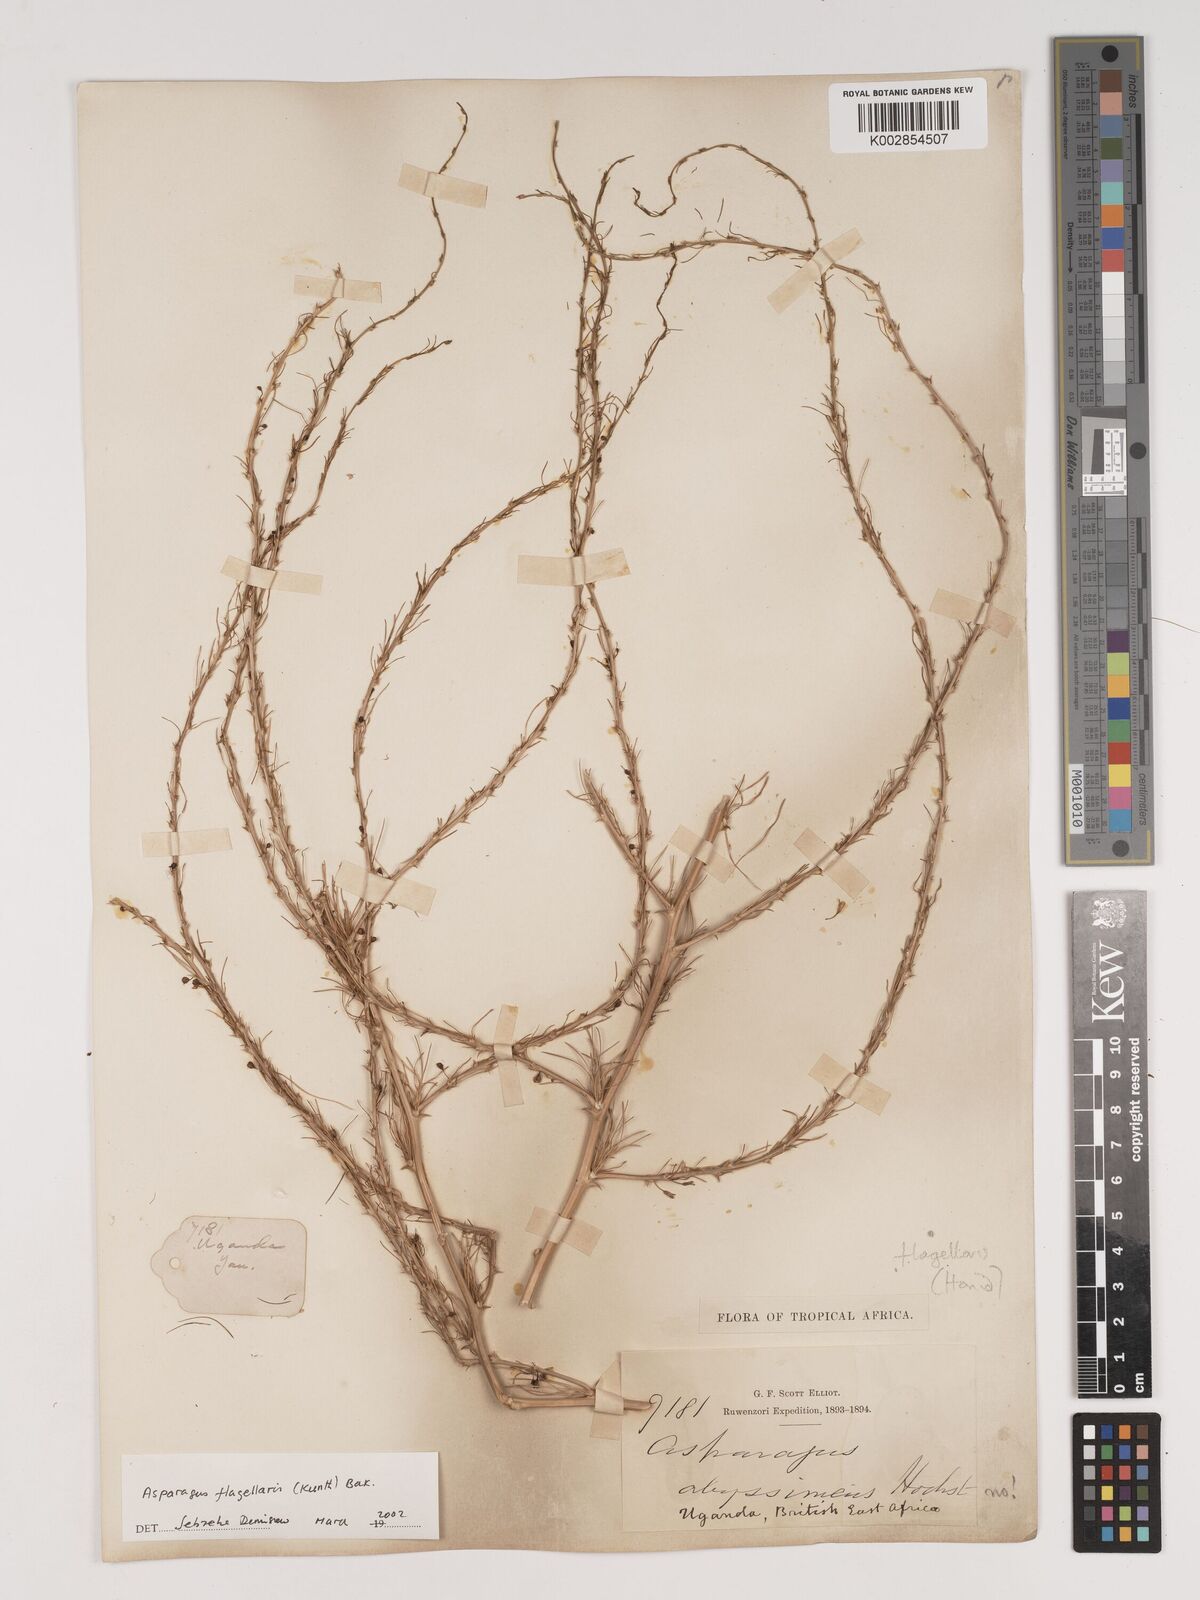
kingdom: Plantae
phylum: Tracheophyta
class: Liliopsida
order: Asparagales
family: Asparagaceae
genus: Asparagus
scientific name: Asparagus flagellaris
